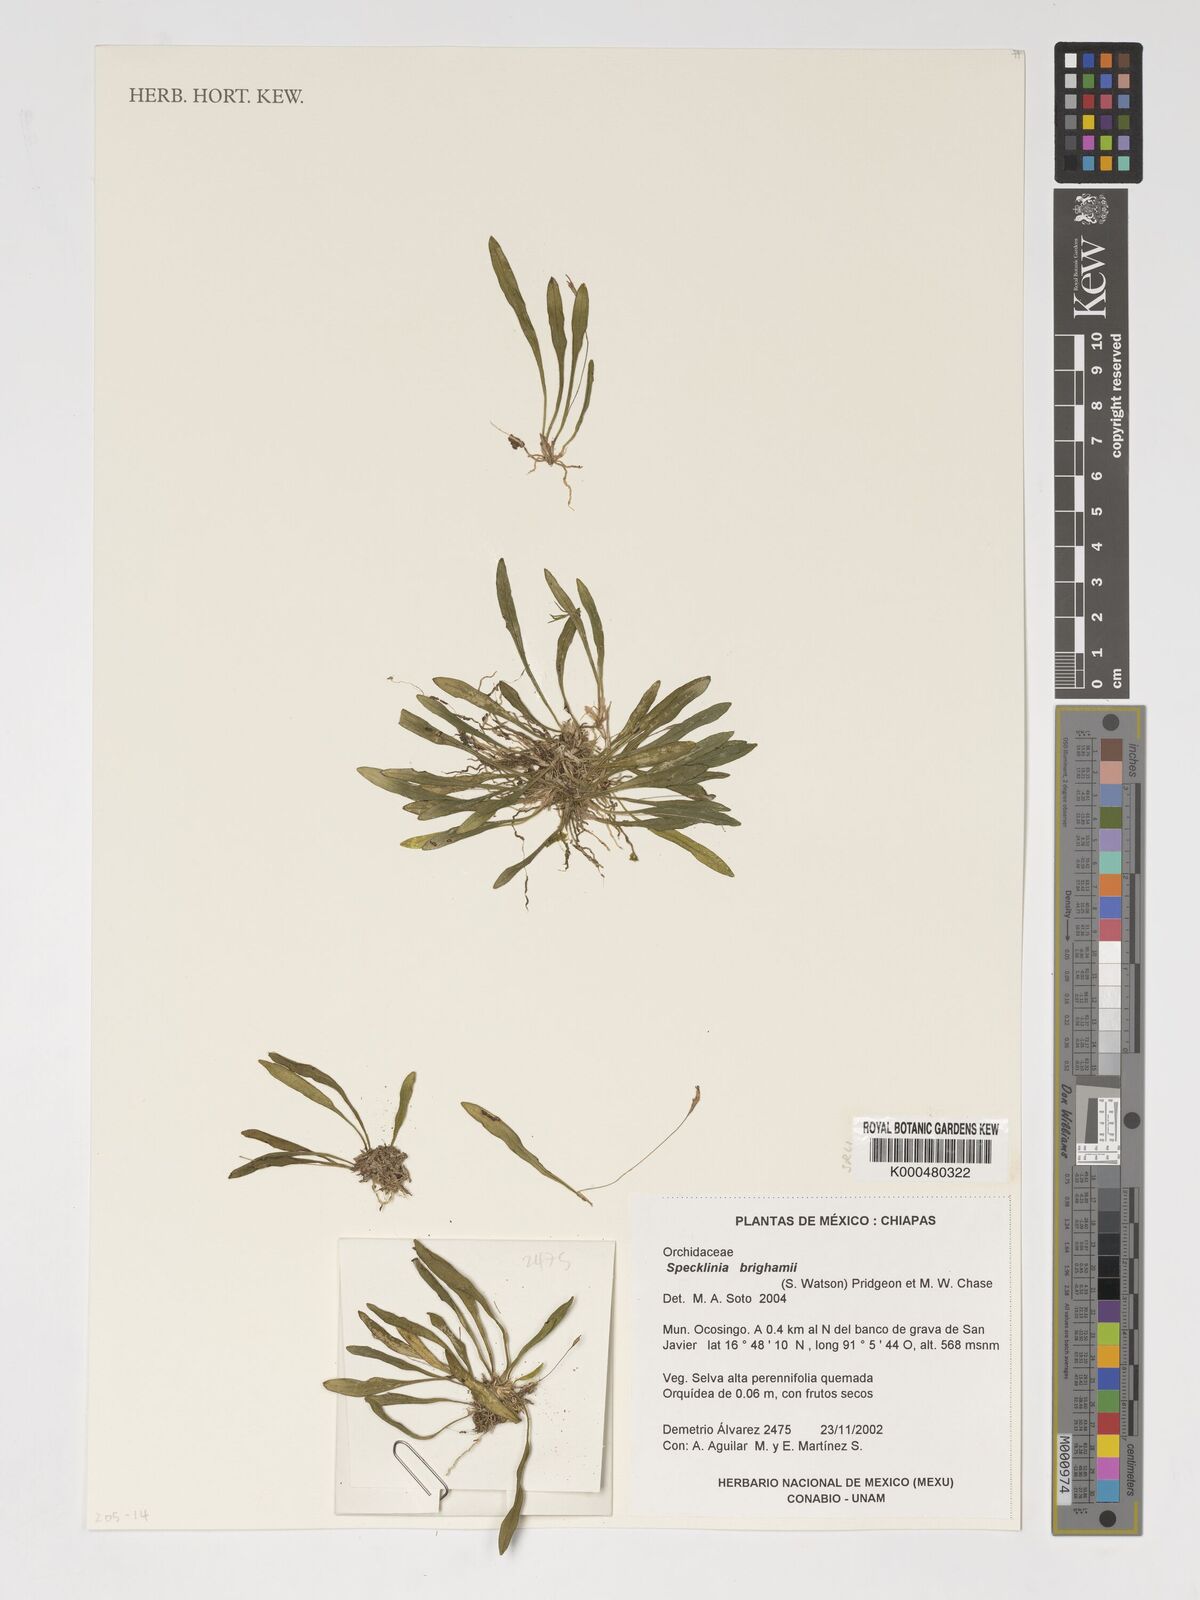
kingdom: Plantae
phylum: Tracheophyta
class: Liliopsida
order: Asparagales
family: Orchidaceae
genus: Specklinia
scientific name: Specklinia
